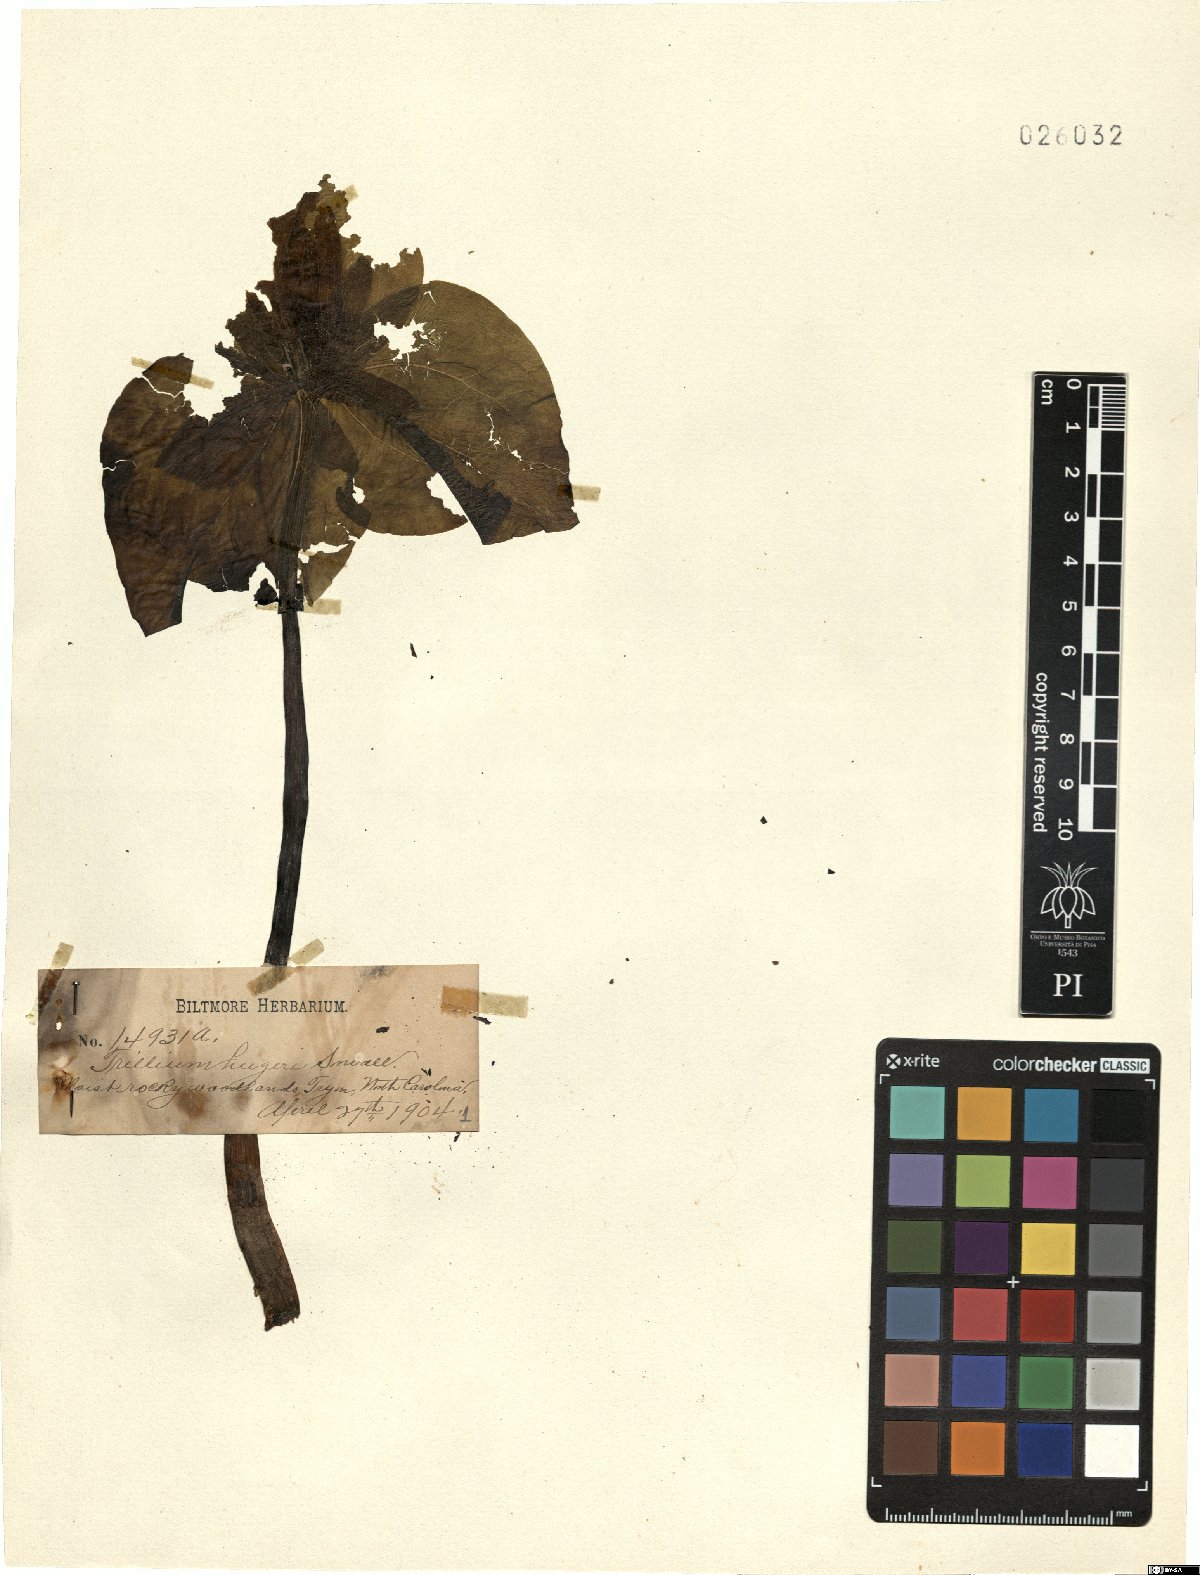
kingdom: Plantae
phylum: Tracheophyta
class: Liliopsida
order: Liliales
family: Melanthiaceae
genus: Trillium
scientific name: Trillium cuneatum
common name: Cuneate trillium
